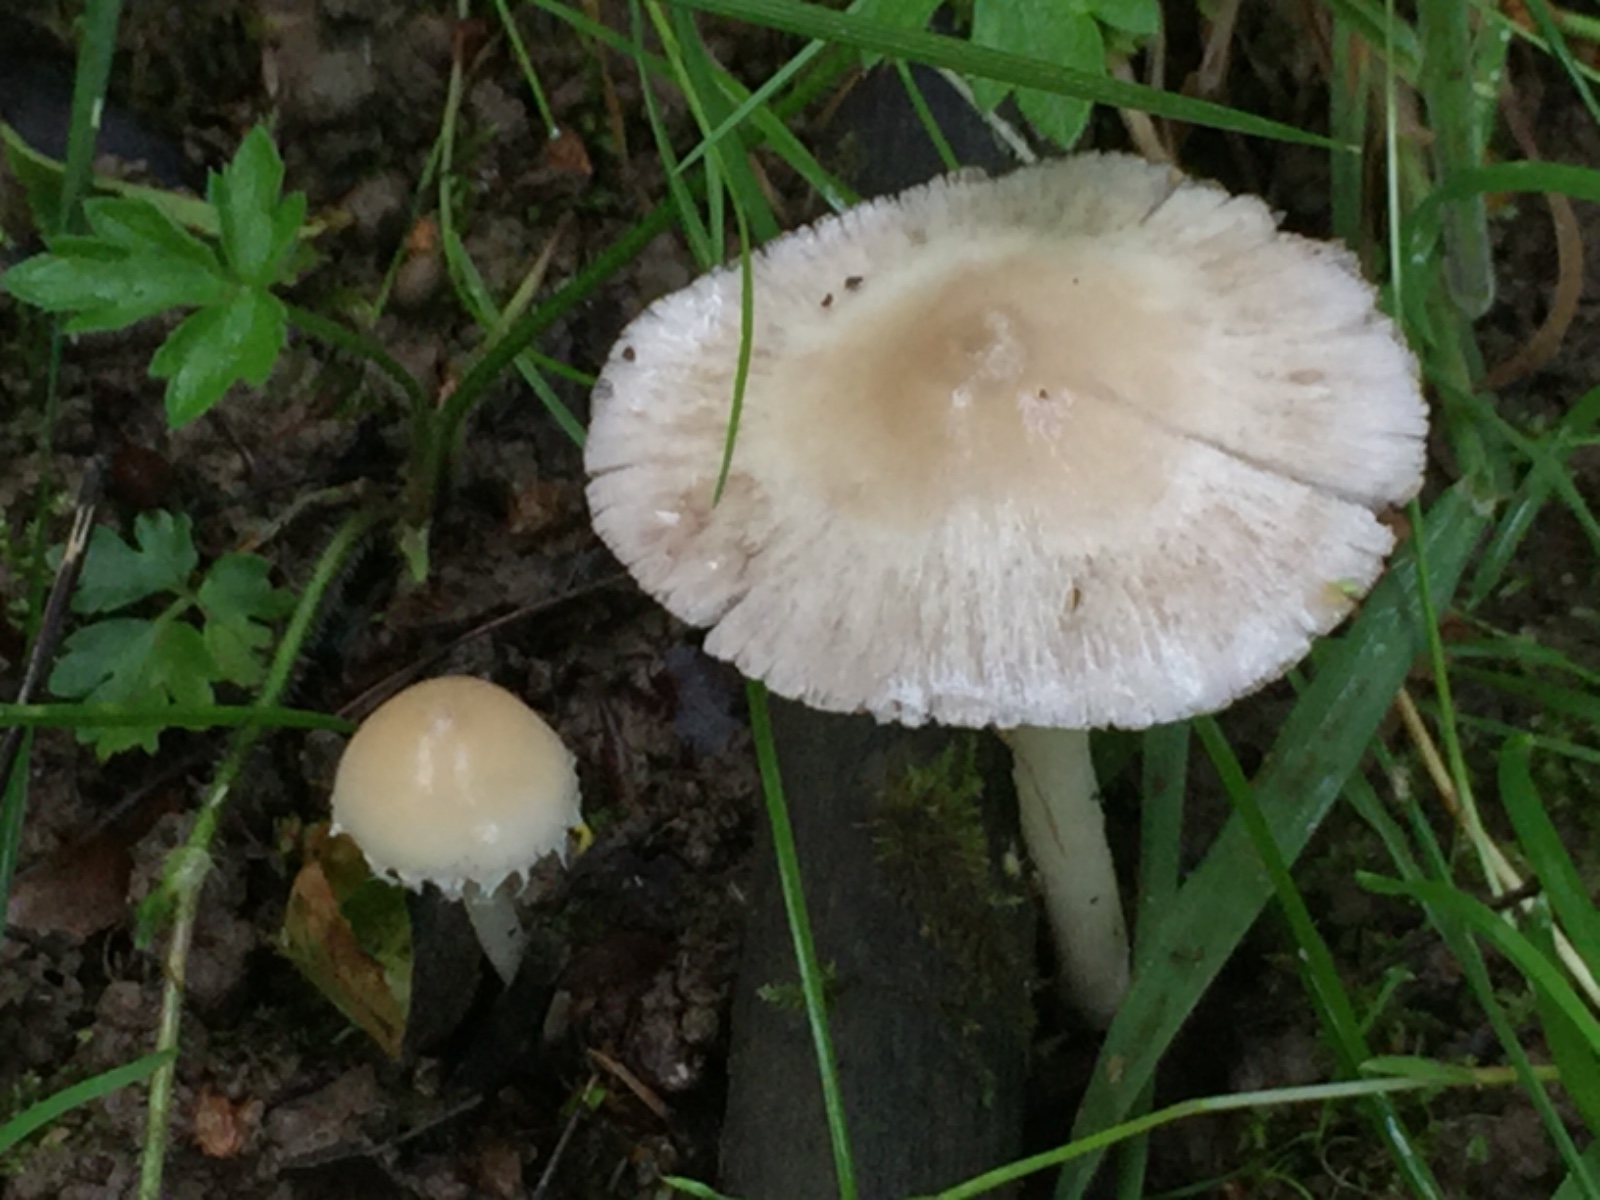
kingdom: Fungi
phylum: Basidiomycota
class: Agaricomycetes
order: Agaricales
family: Psathyrellaceae
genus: Candolleomyces
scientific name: Candolleomyces candolleanus
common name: Candolles mørkhat
